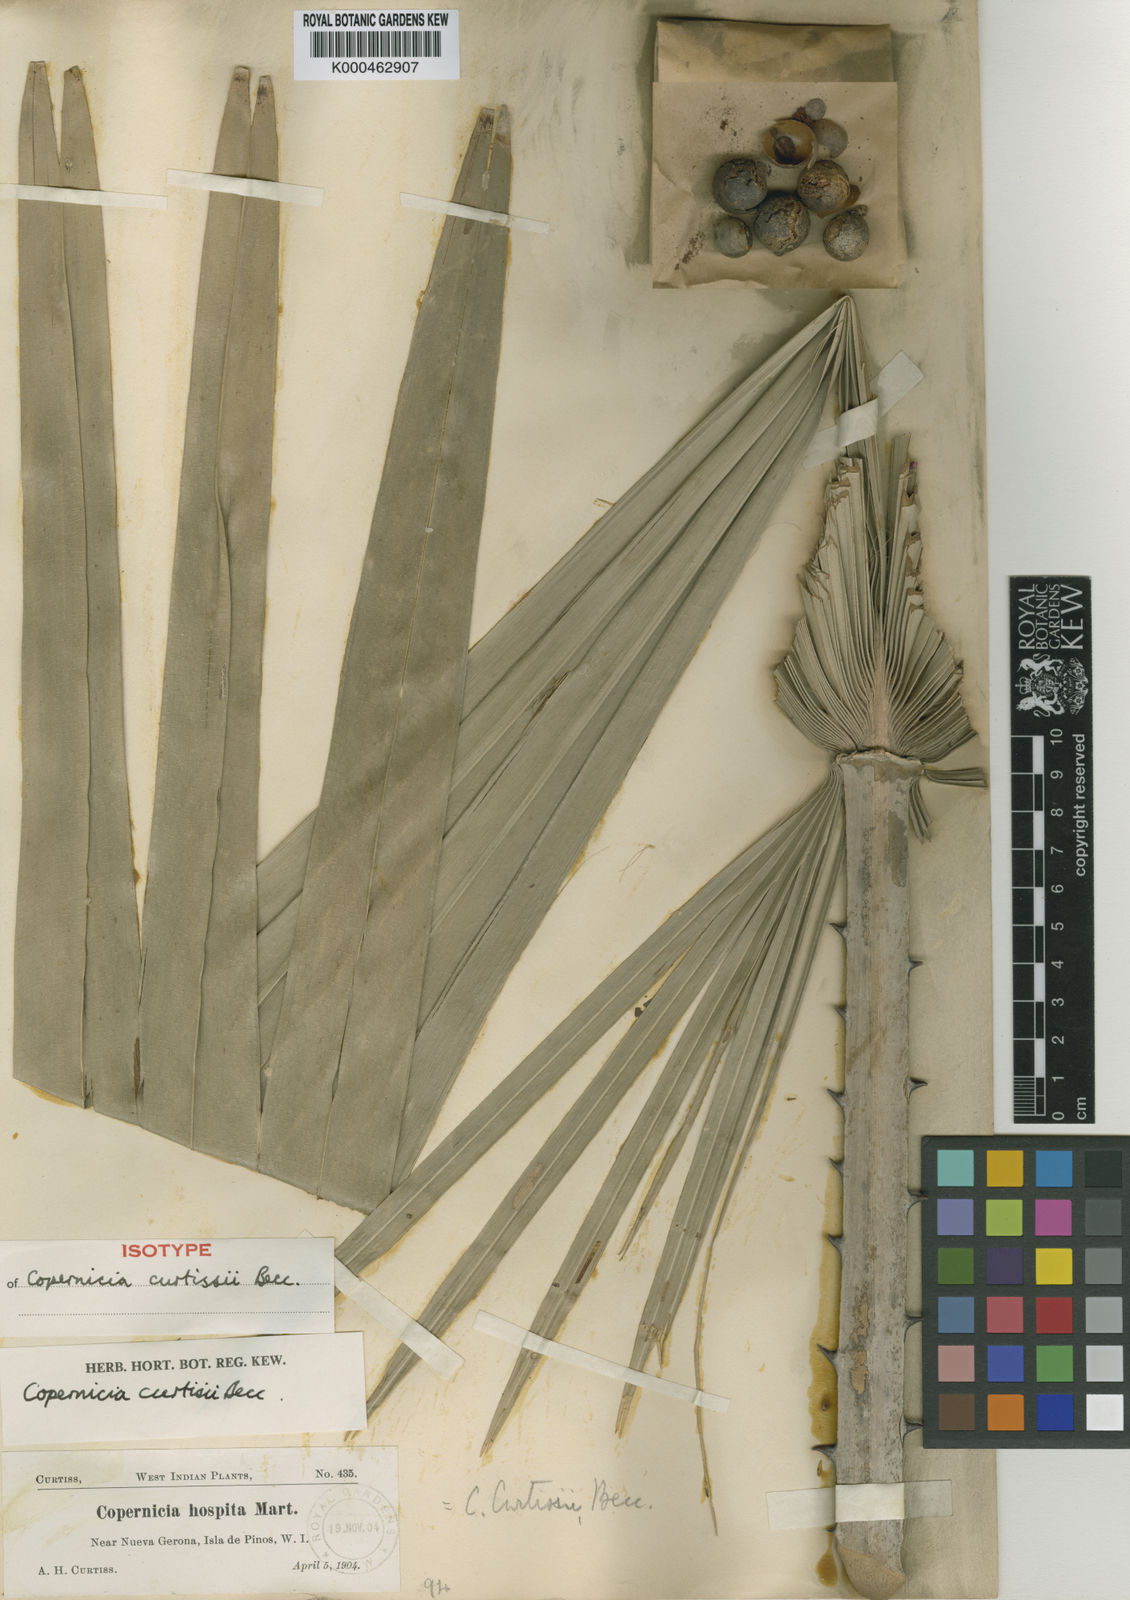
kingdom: Plantae
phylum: Tracheophyta
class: Liliopsida
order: Arecales
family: Arecaceae
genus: Copernicia
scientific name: Copernicia curtissii
